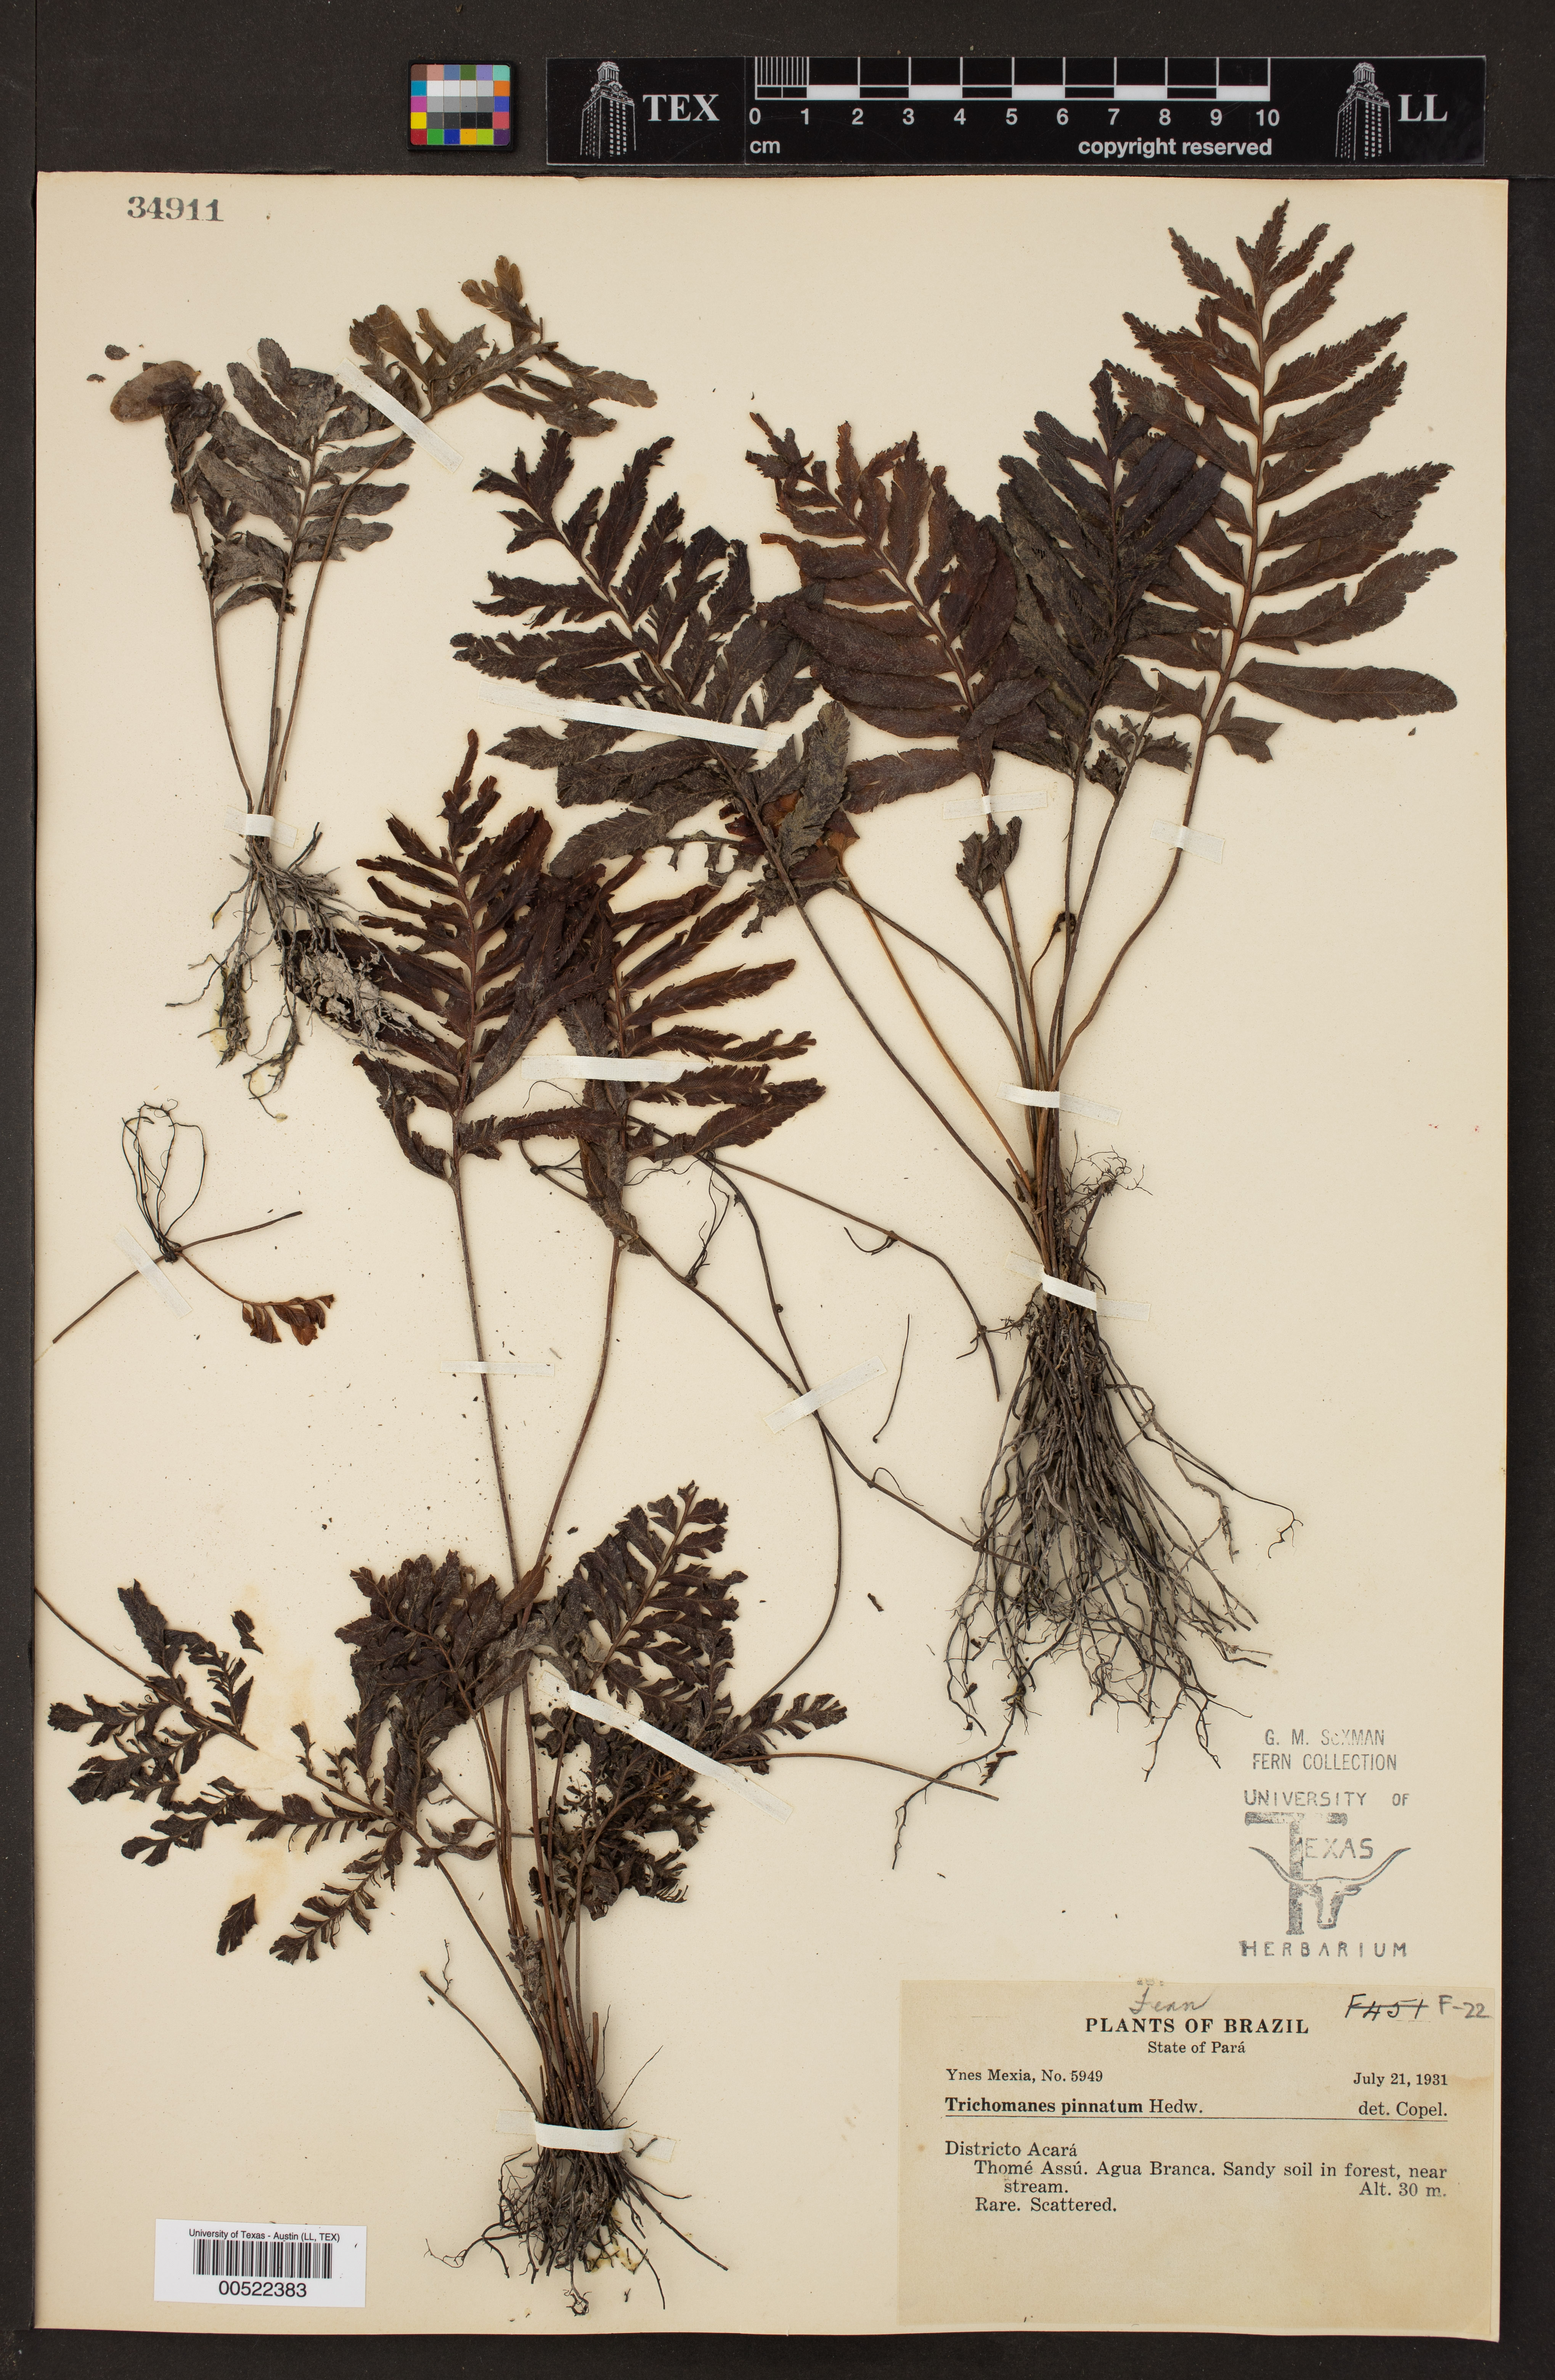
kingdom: Plantae
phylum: Tracheophyta
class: Polypodiopsida
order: Hymenophyllales
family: Hymenophyllaceae
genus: Trichomanes
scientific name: Trichomanes pinnatum
